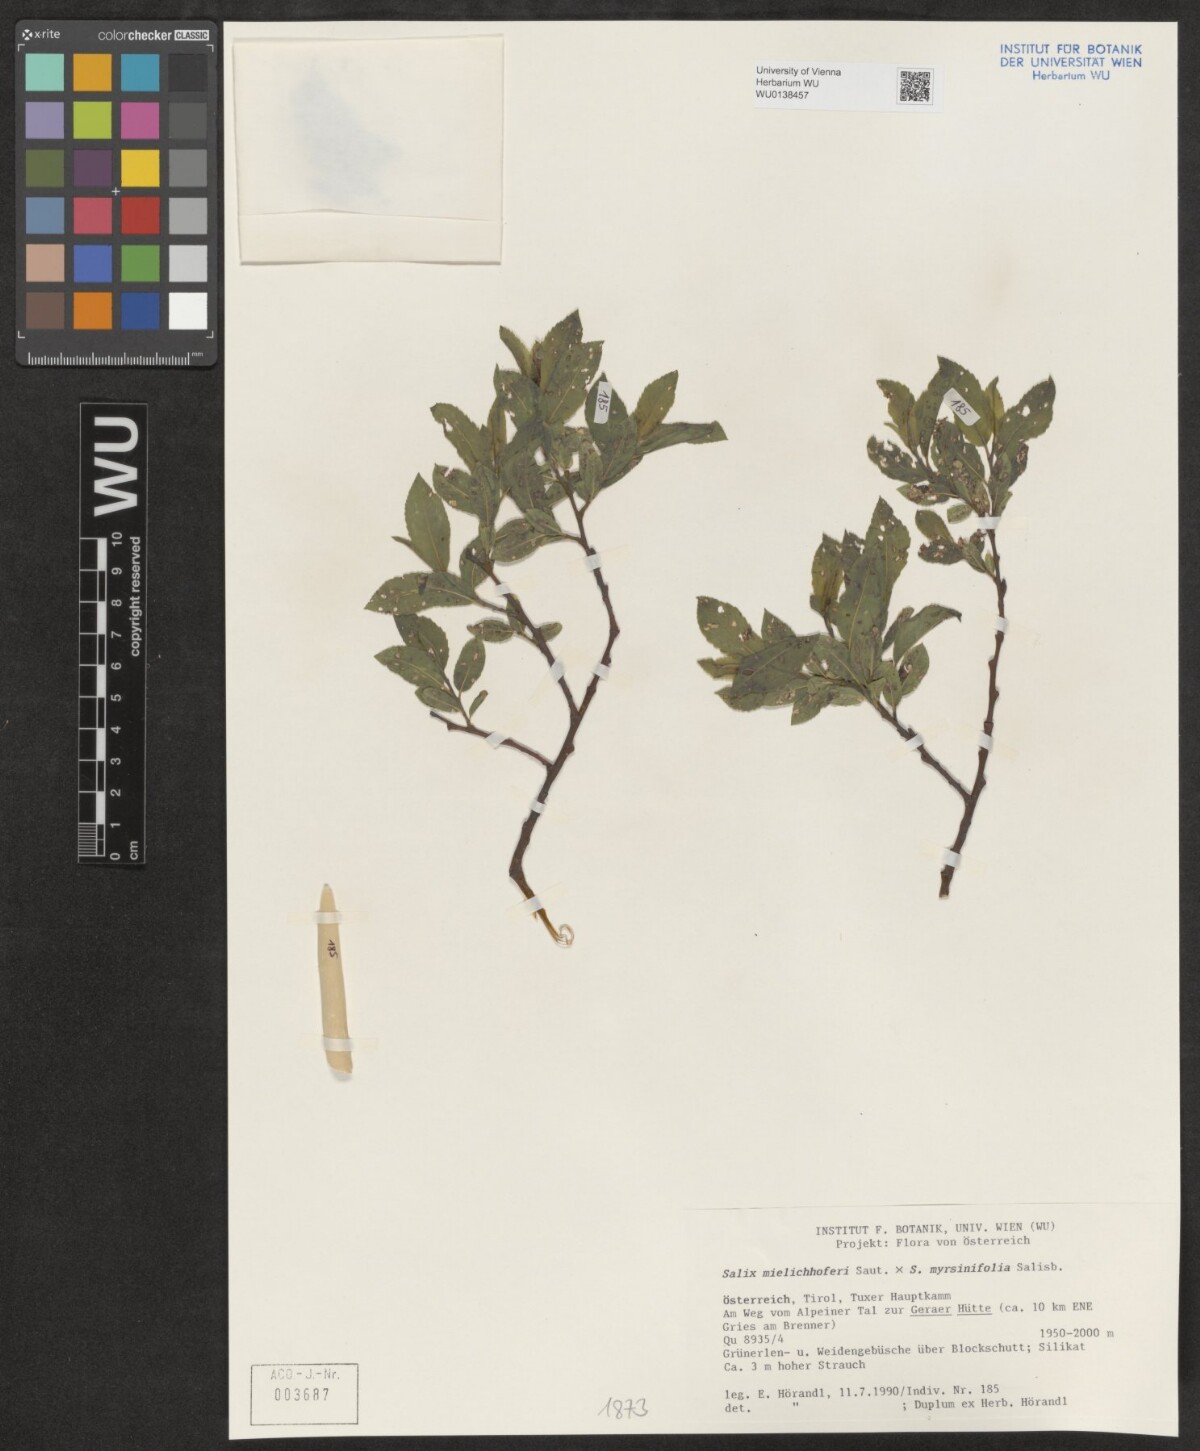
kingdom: Plantae
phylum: Tracheophyta
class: Magnoliopsida
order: Malpighiales
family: Salicaceae
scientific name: Salicaceae
